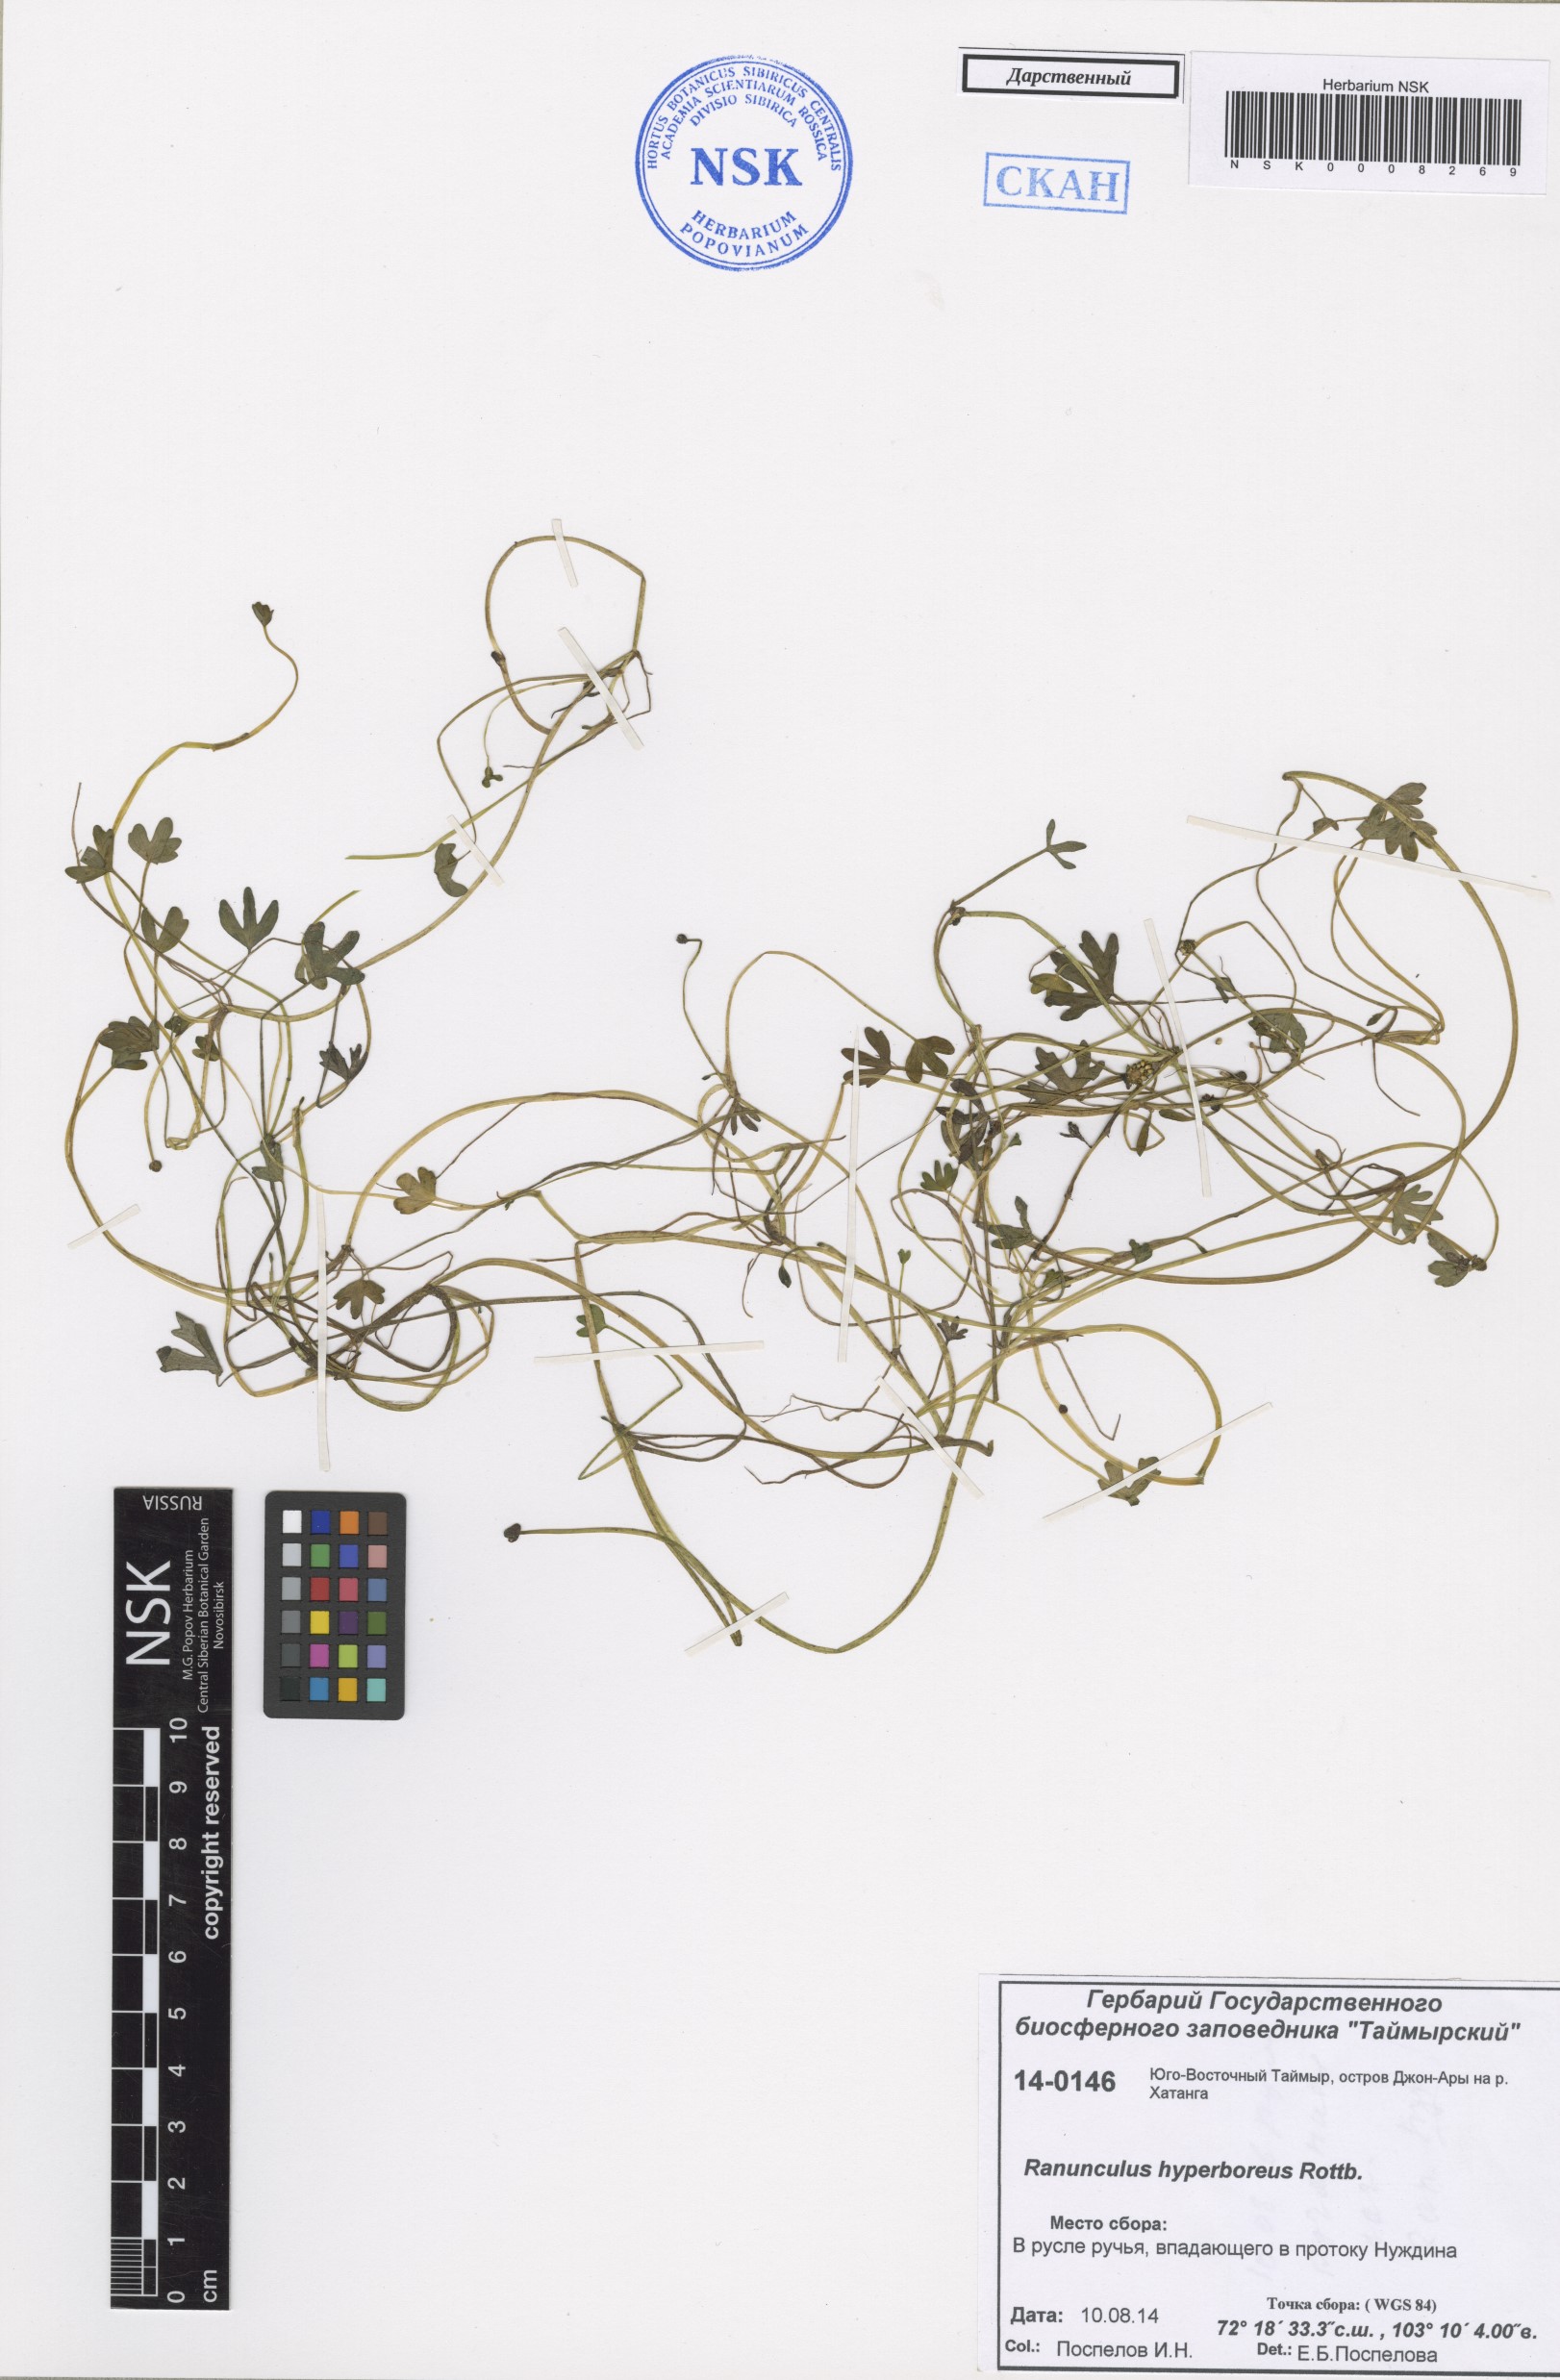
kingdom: Plantae
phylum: Tracheophyta
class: Magnoliopsida
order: Ranunculales
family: Ranunculaceae
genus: Ranunculus
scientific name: Ranunculus hyperboreus
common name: Arctic buttercup
